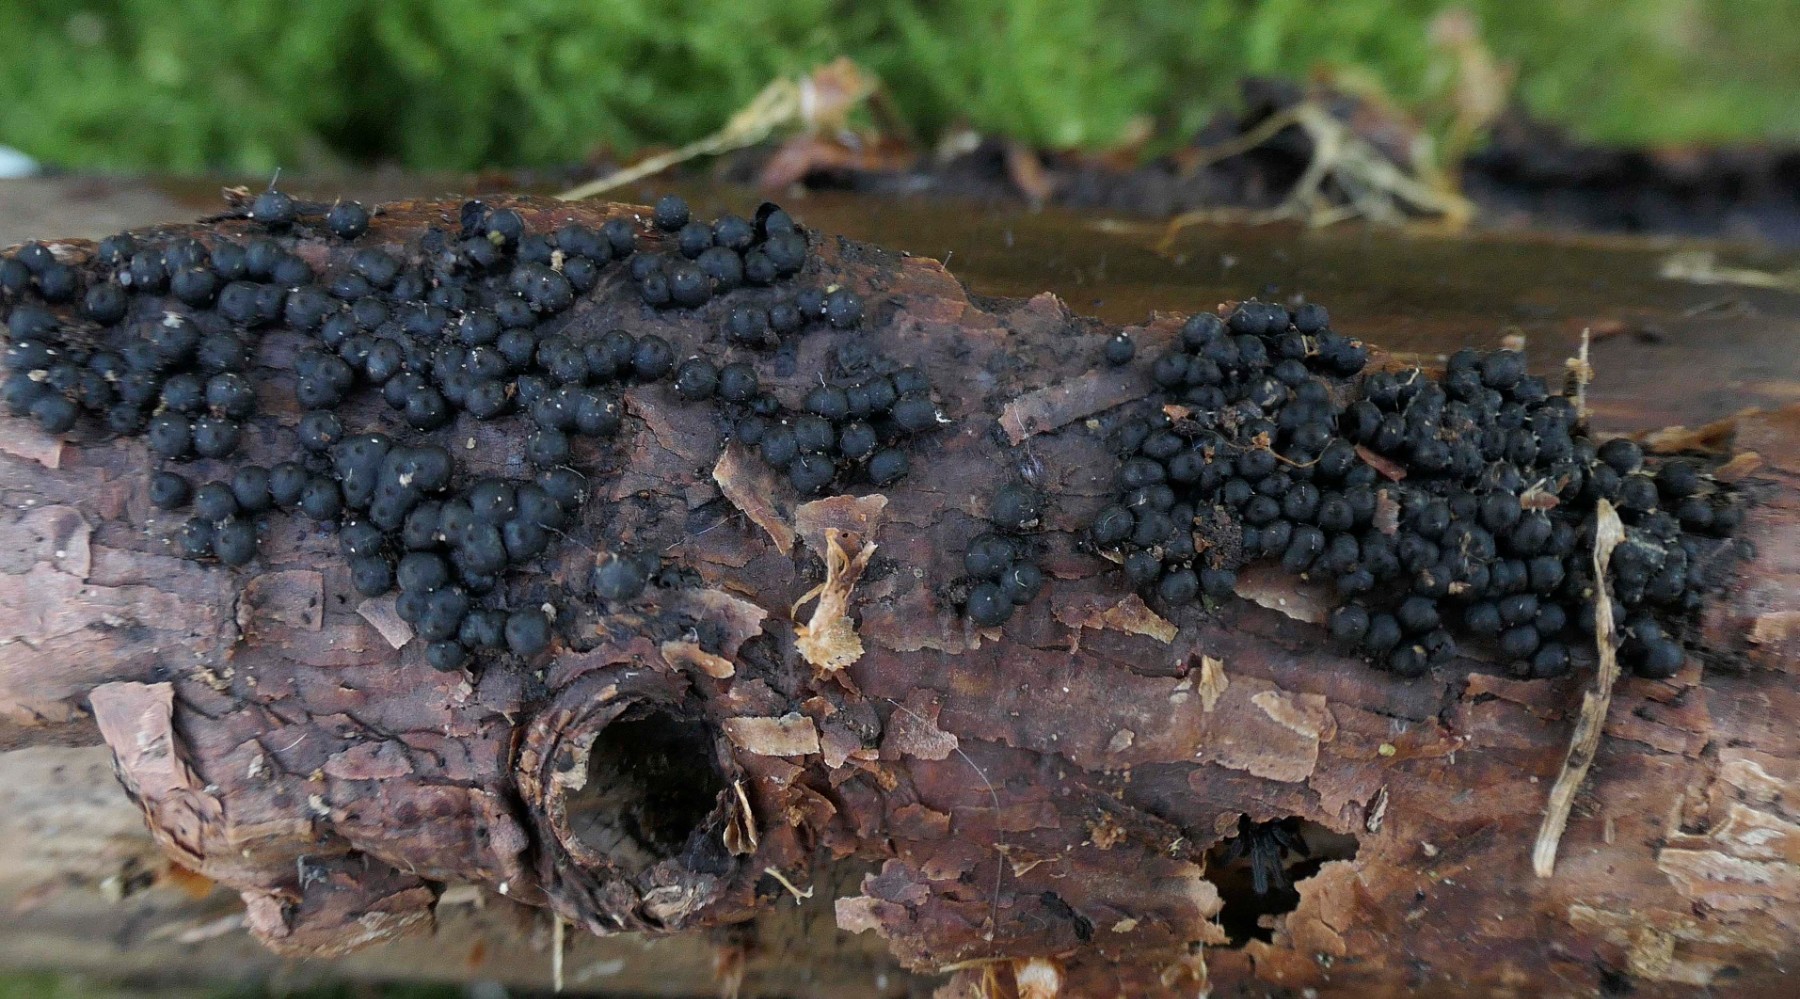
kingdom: Fungi
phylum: Ascomycota
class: Sordariomycetes
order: Xylariales
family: Xylariaceae
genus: Rosellinia
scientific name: Rosellinia
